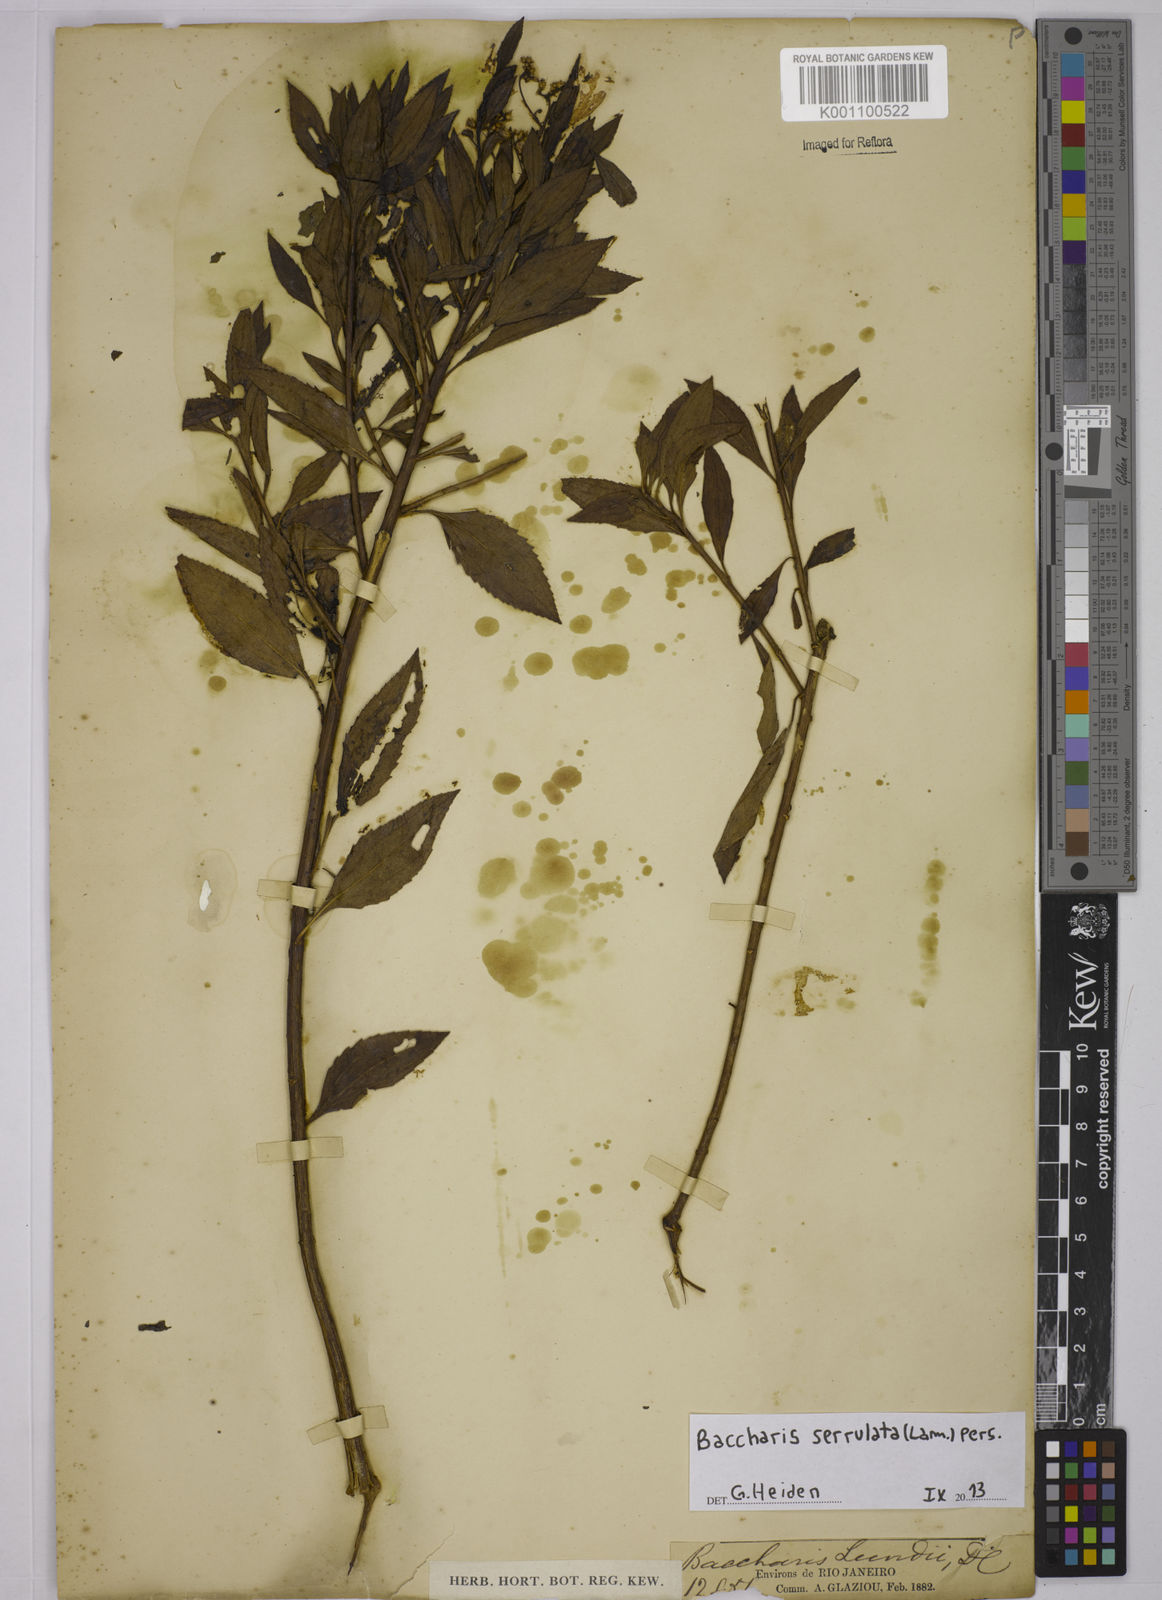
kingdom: Plantae
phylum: Tracheophyta
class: Magnoliopsida
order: Asterales
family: Asteraceae
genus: Baccharis
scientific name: Baccharis serrulata
